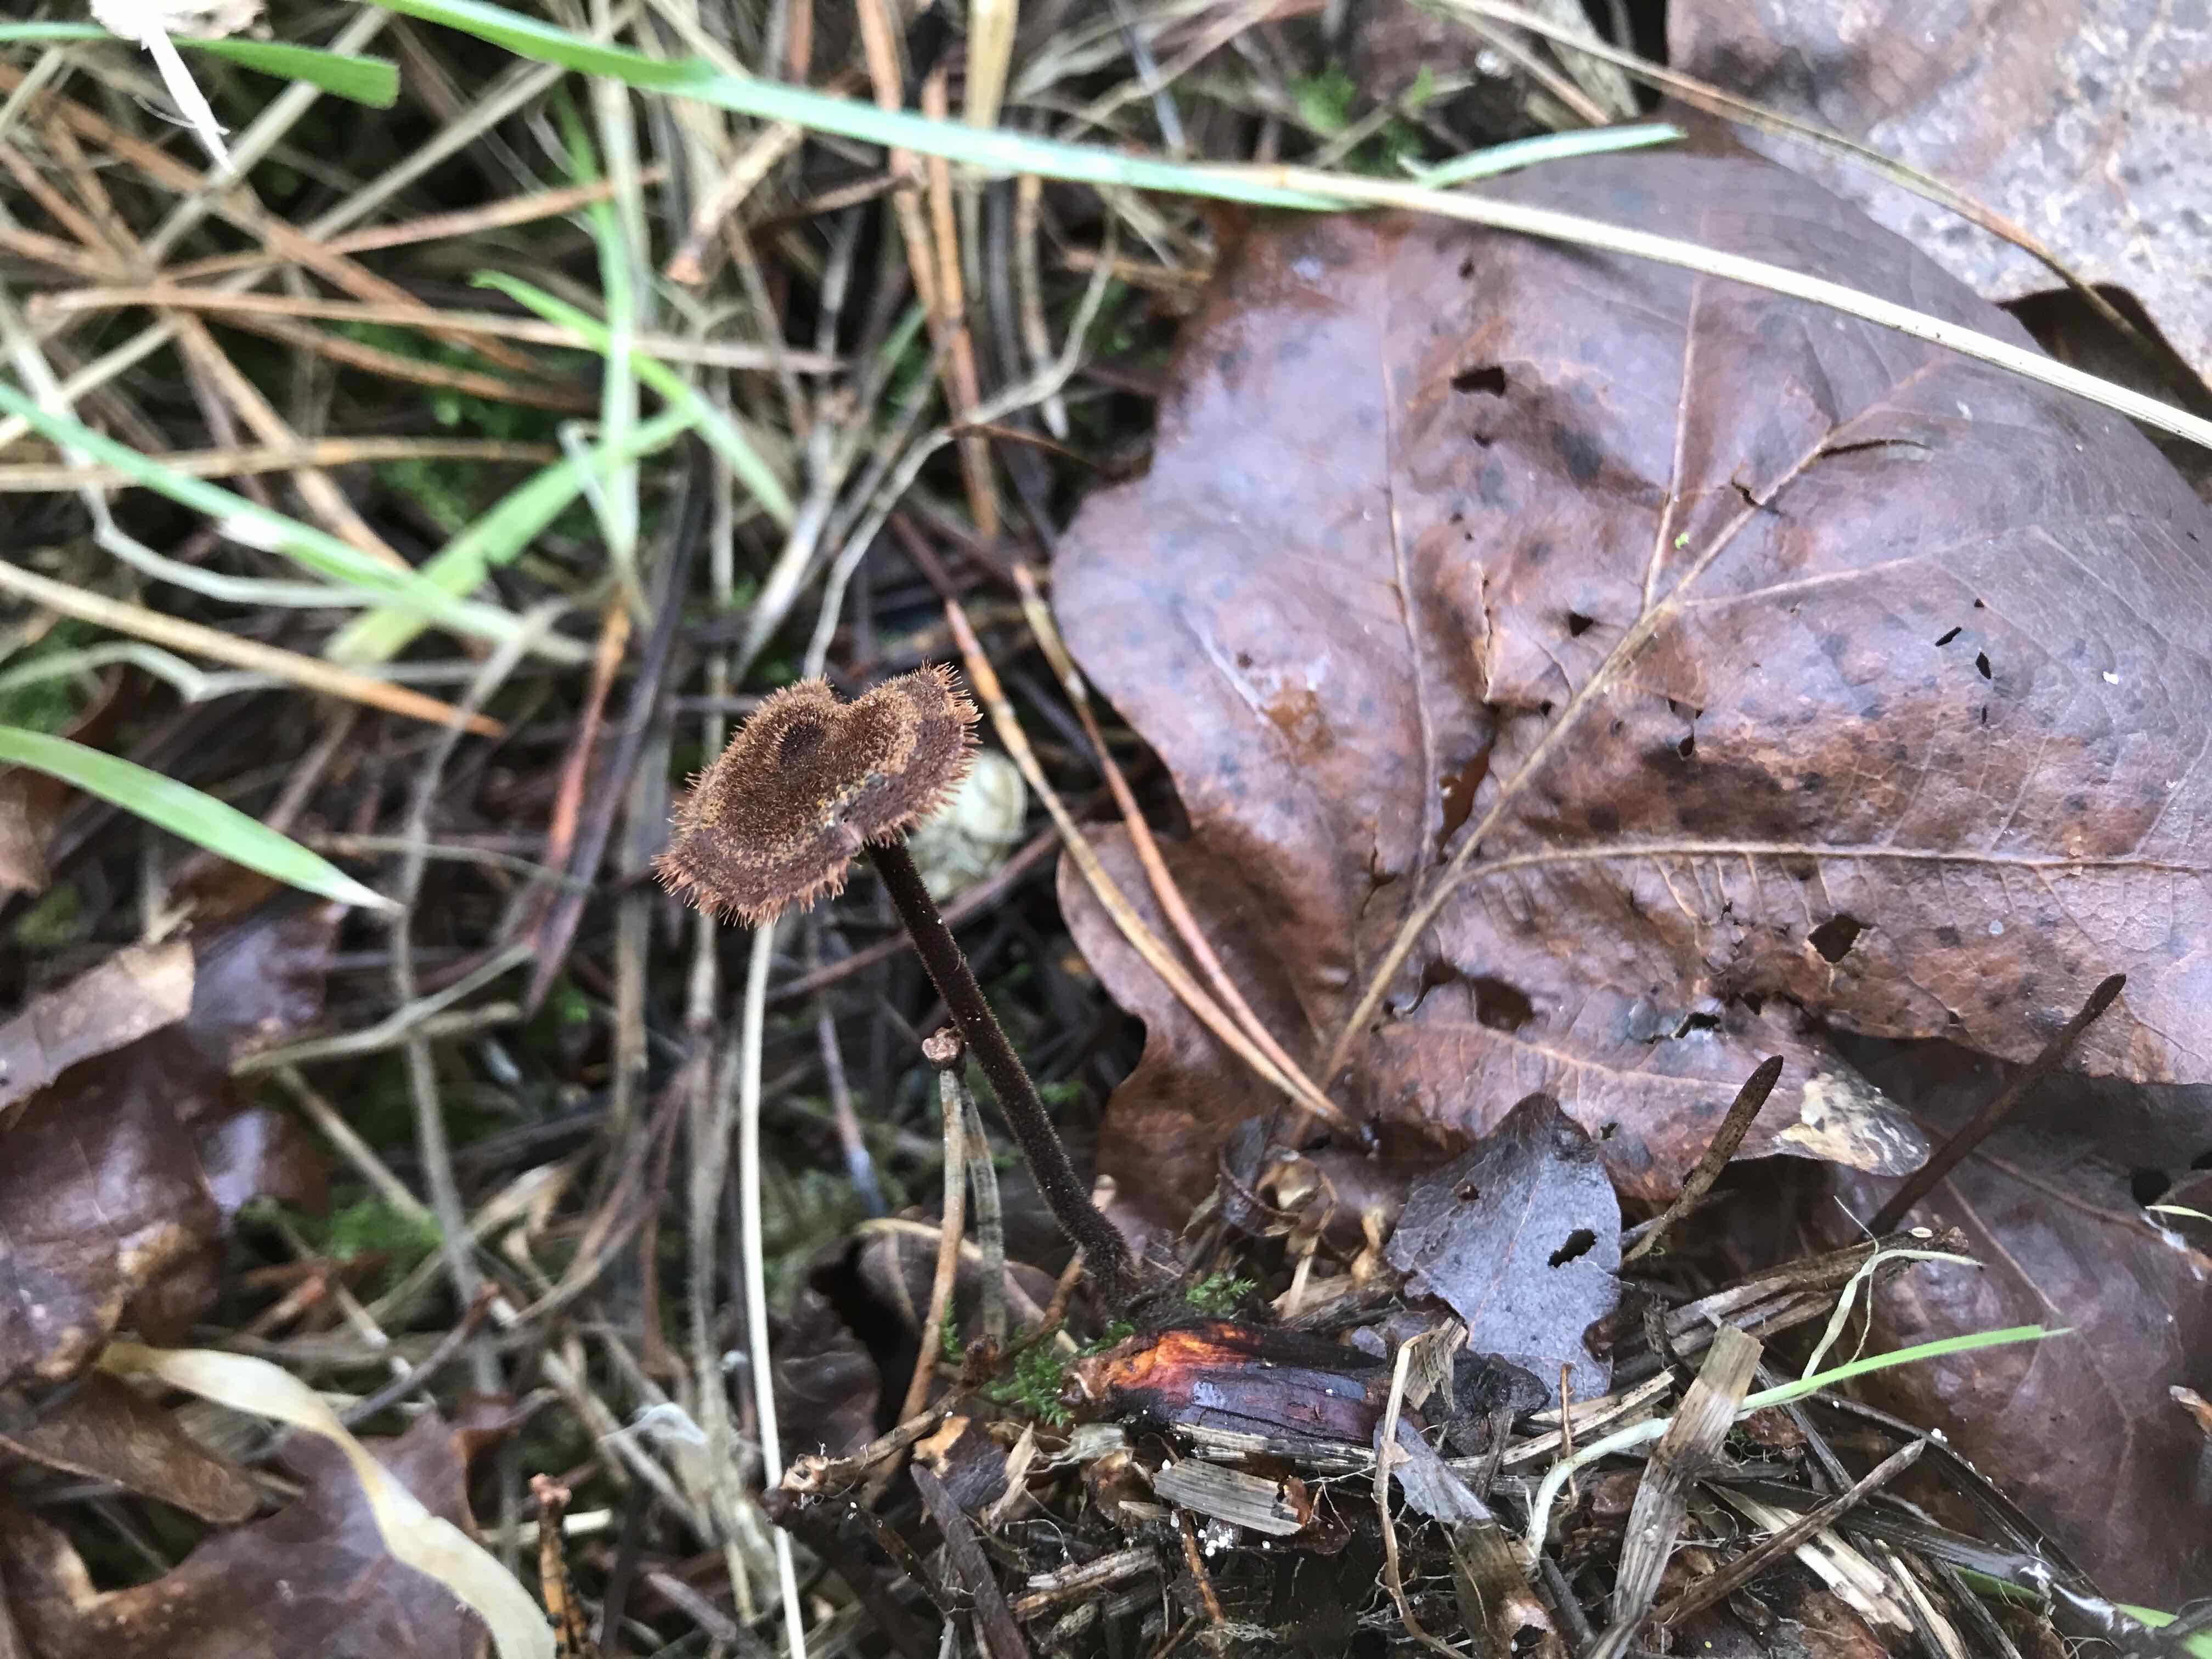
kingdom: Fungi
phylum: Basidiomycota
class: Agaricomycetes
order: Russulales
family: Auriscalpiaceae
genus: Auriscalpium
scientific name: Auriscalpium vulgare
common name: koglepigsvamp
